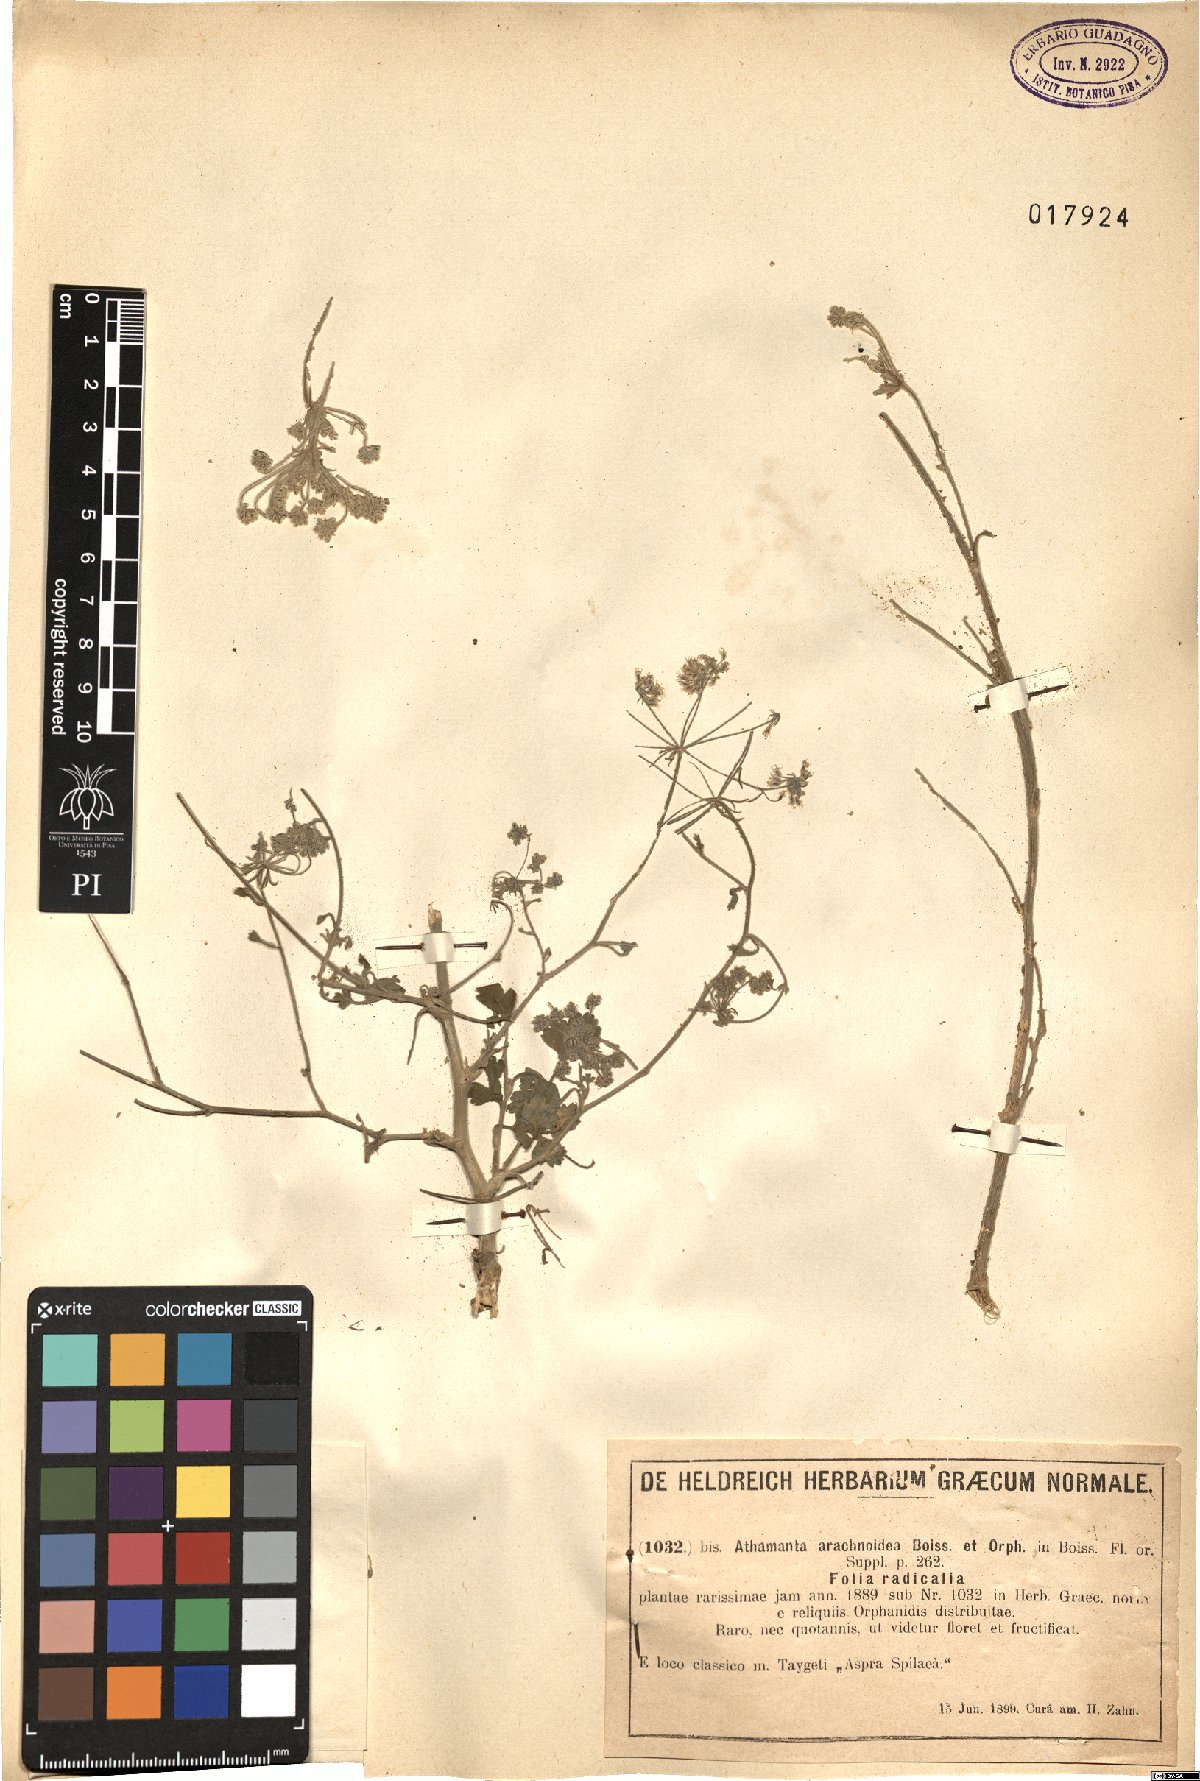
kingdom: Plantae
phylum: Tracheophyta
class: Magnoliopsida
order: Apiales
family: Apiaceae
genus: Bubon
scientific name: Bubon arachnoideum
